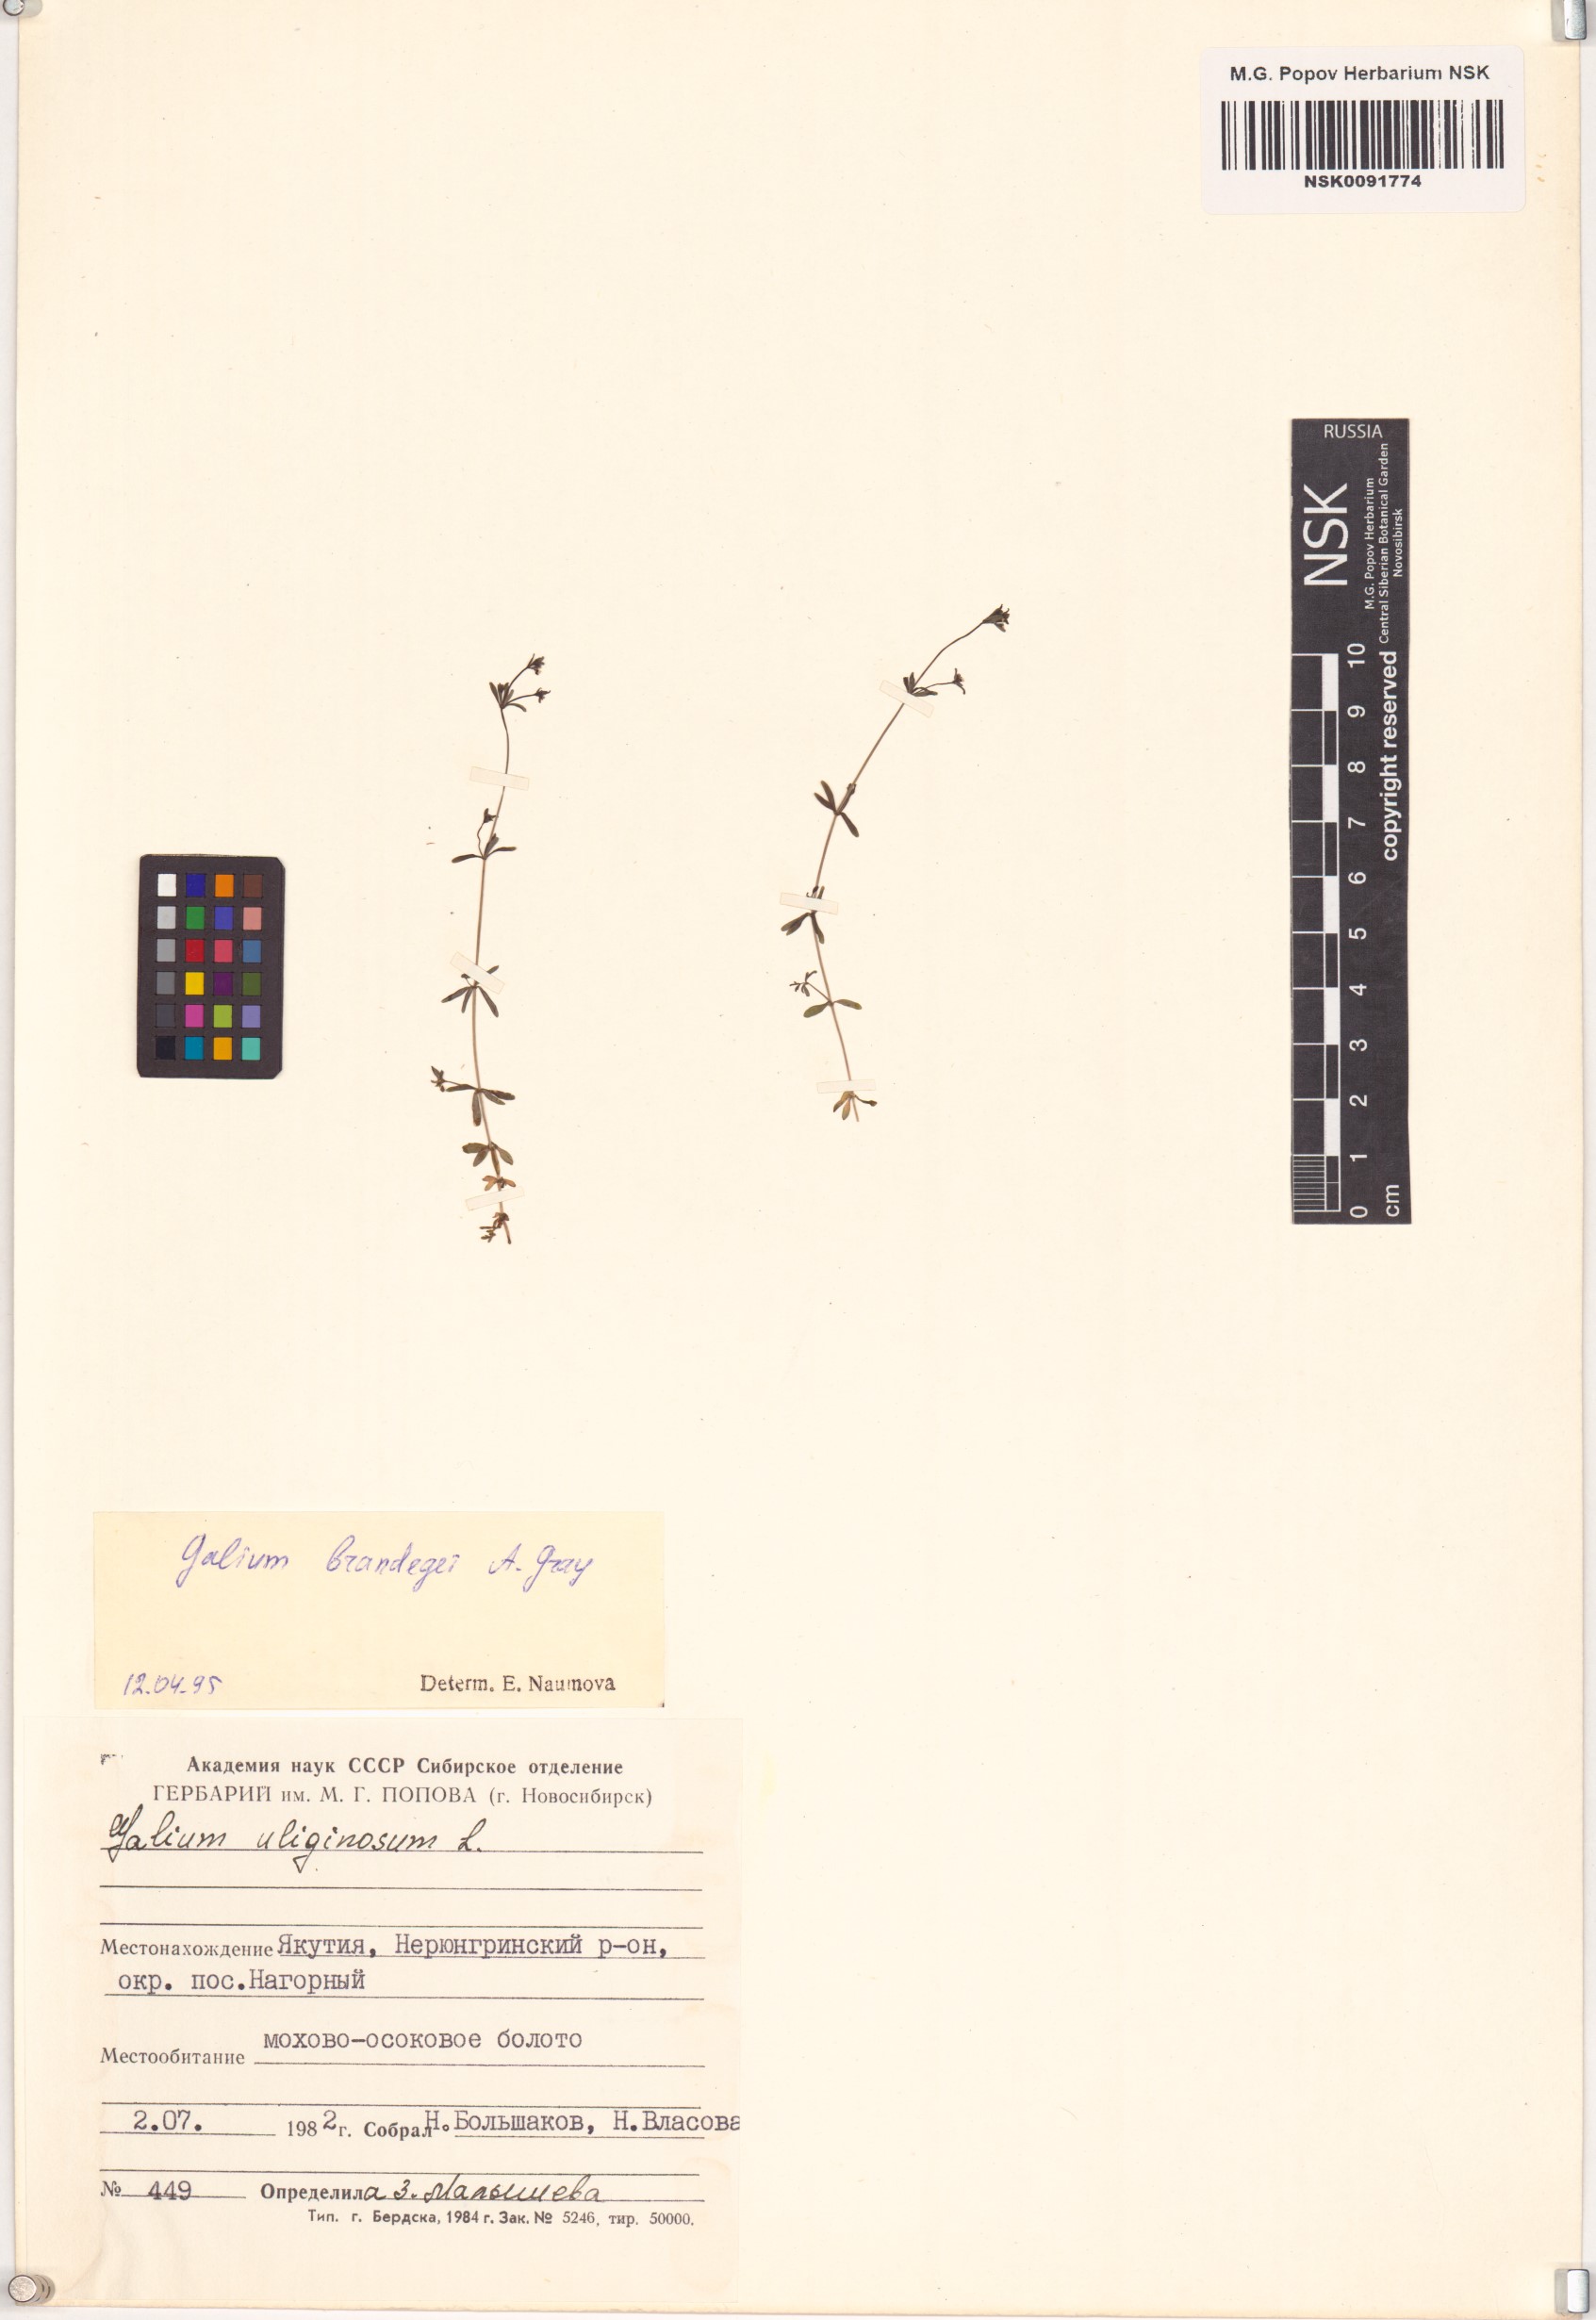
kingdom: Plantae
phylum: Tracheophyta
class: Magnoliopsida
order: Gentianales
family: Rubiaceae
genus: Galium
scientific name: Galium trifidum
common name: Small bedstraw
